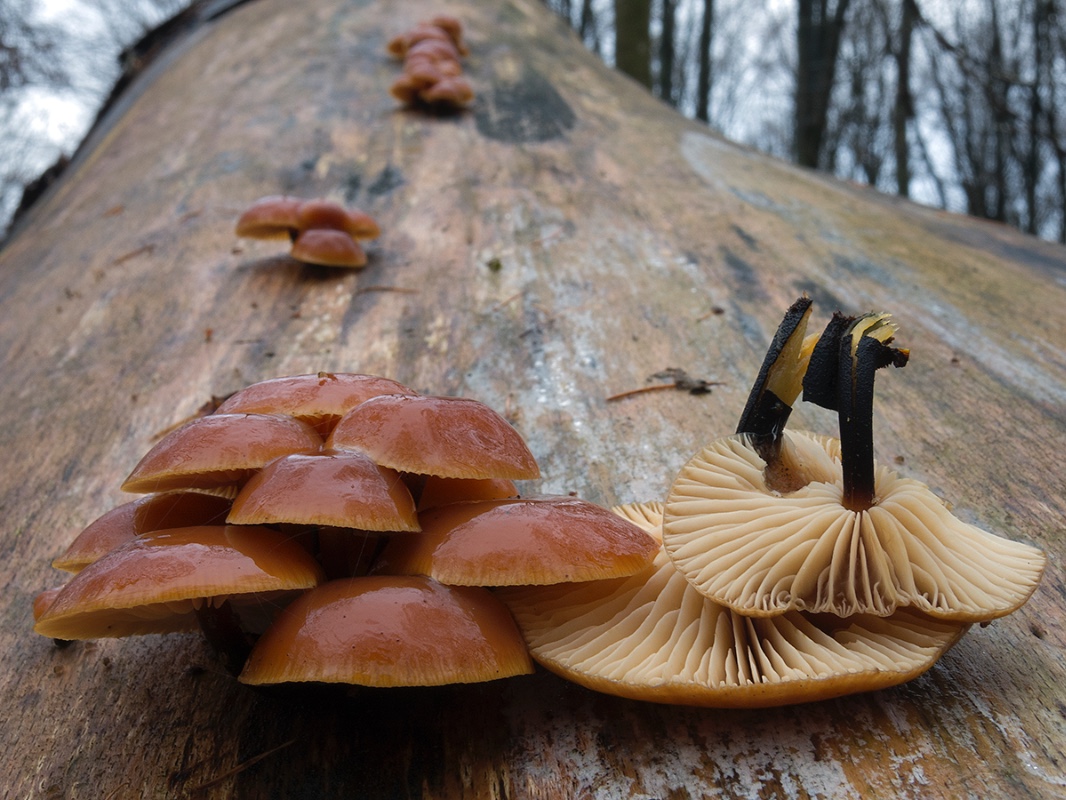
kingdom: Fungi
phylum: Basidiomycota
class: Agaricomycetes
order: Agaricales
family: Physalacriaceae
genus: Flammulina
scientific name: Flammulina velutipes
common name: gul fløjlsfod
